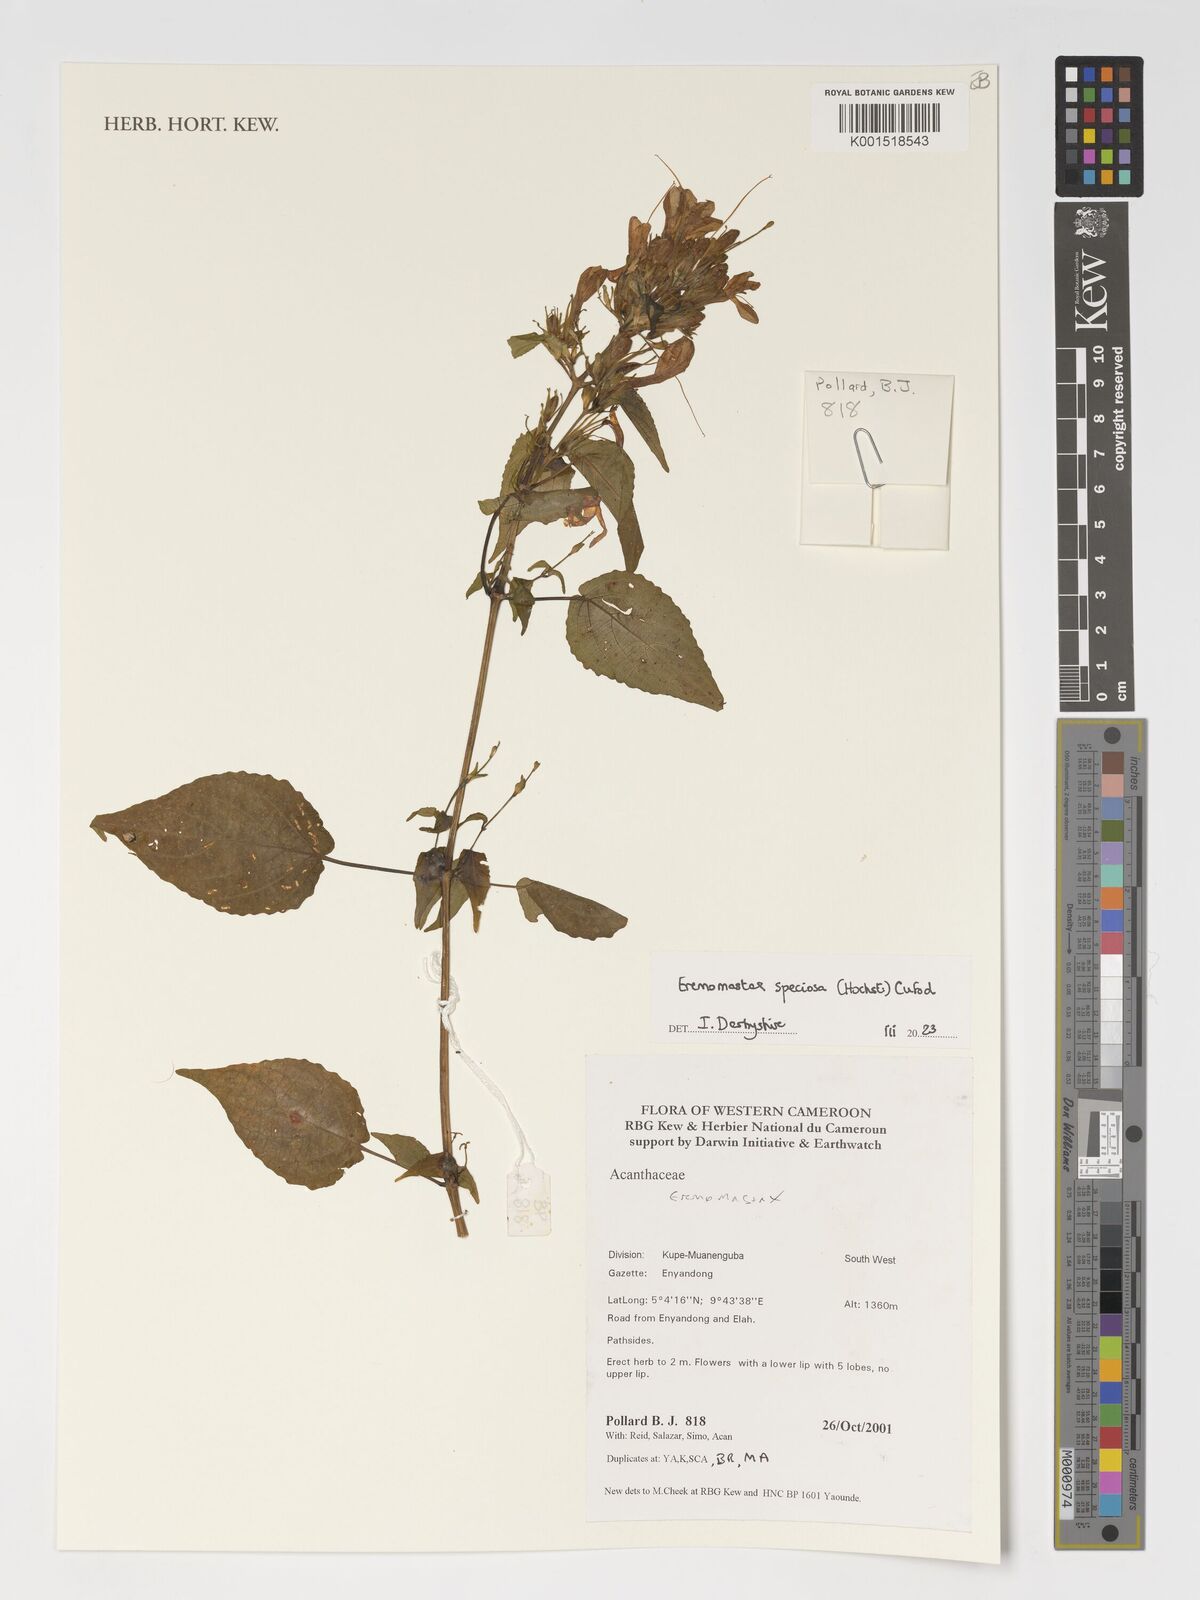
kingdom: Plantae
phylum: Tracheophyta
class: Magnoliopsida
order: Lamiales
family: Acanthaceae
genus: Eremomastax
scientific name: Eremomastax speciosa
